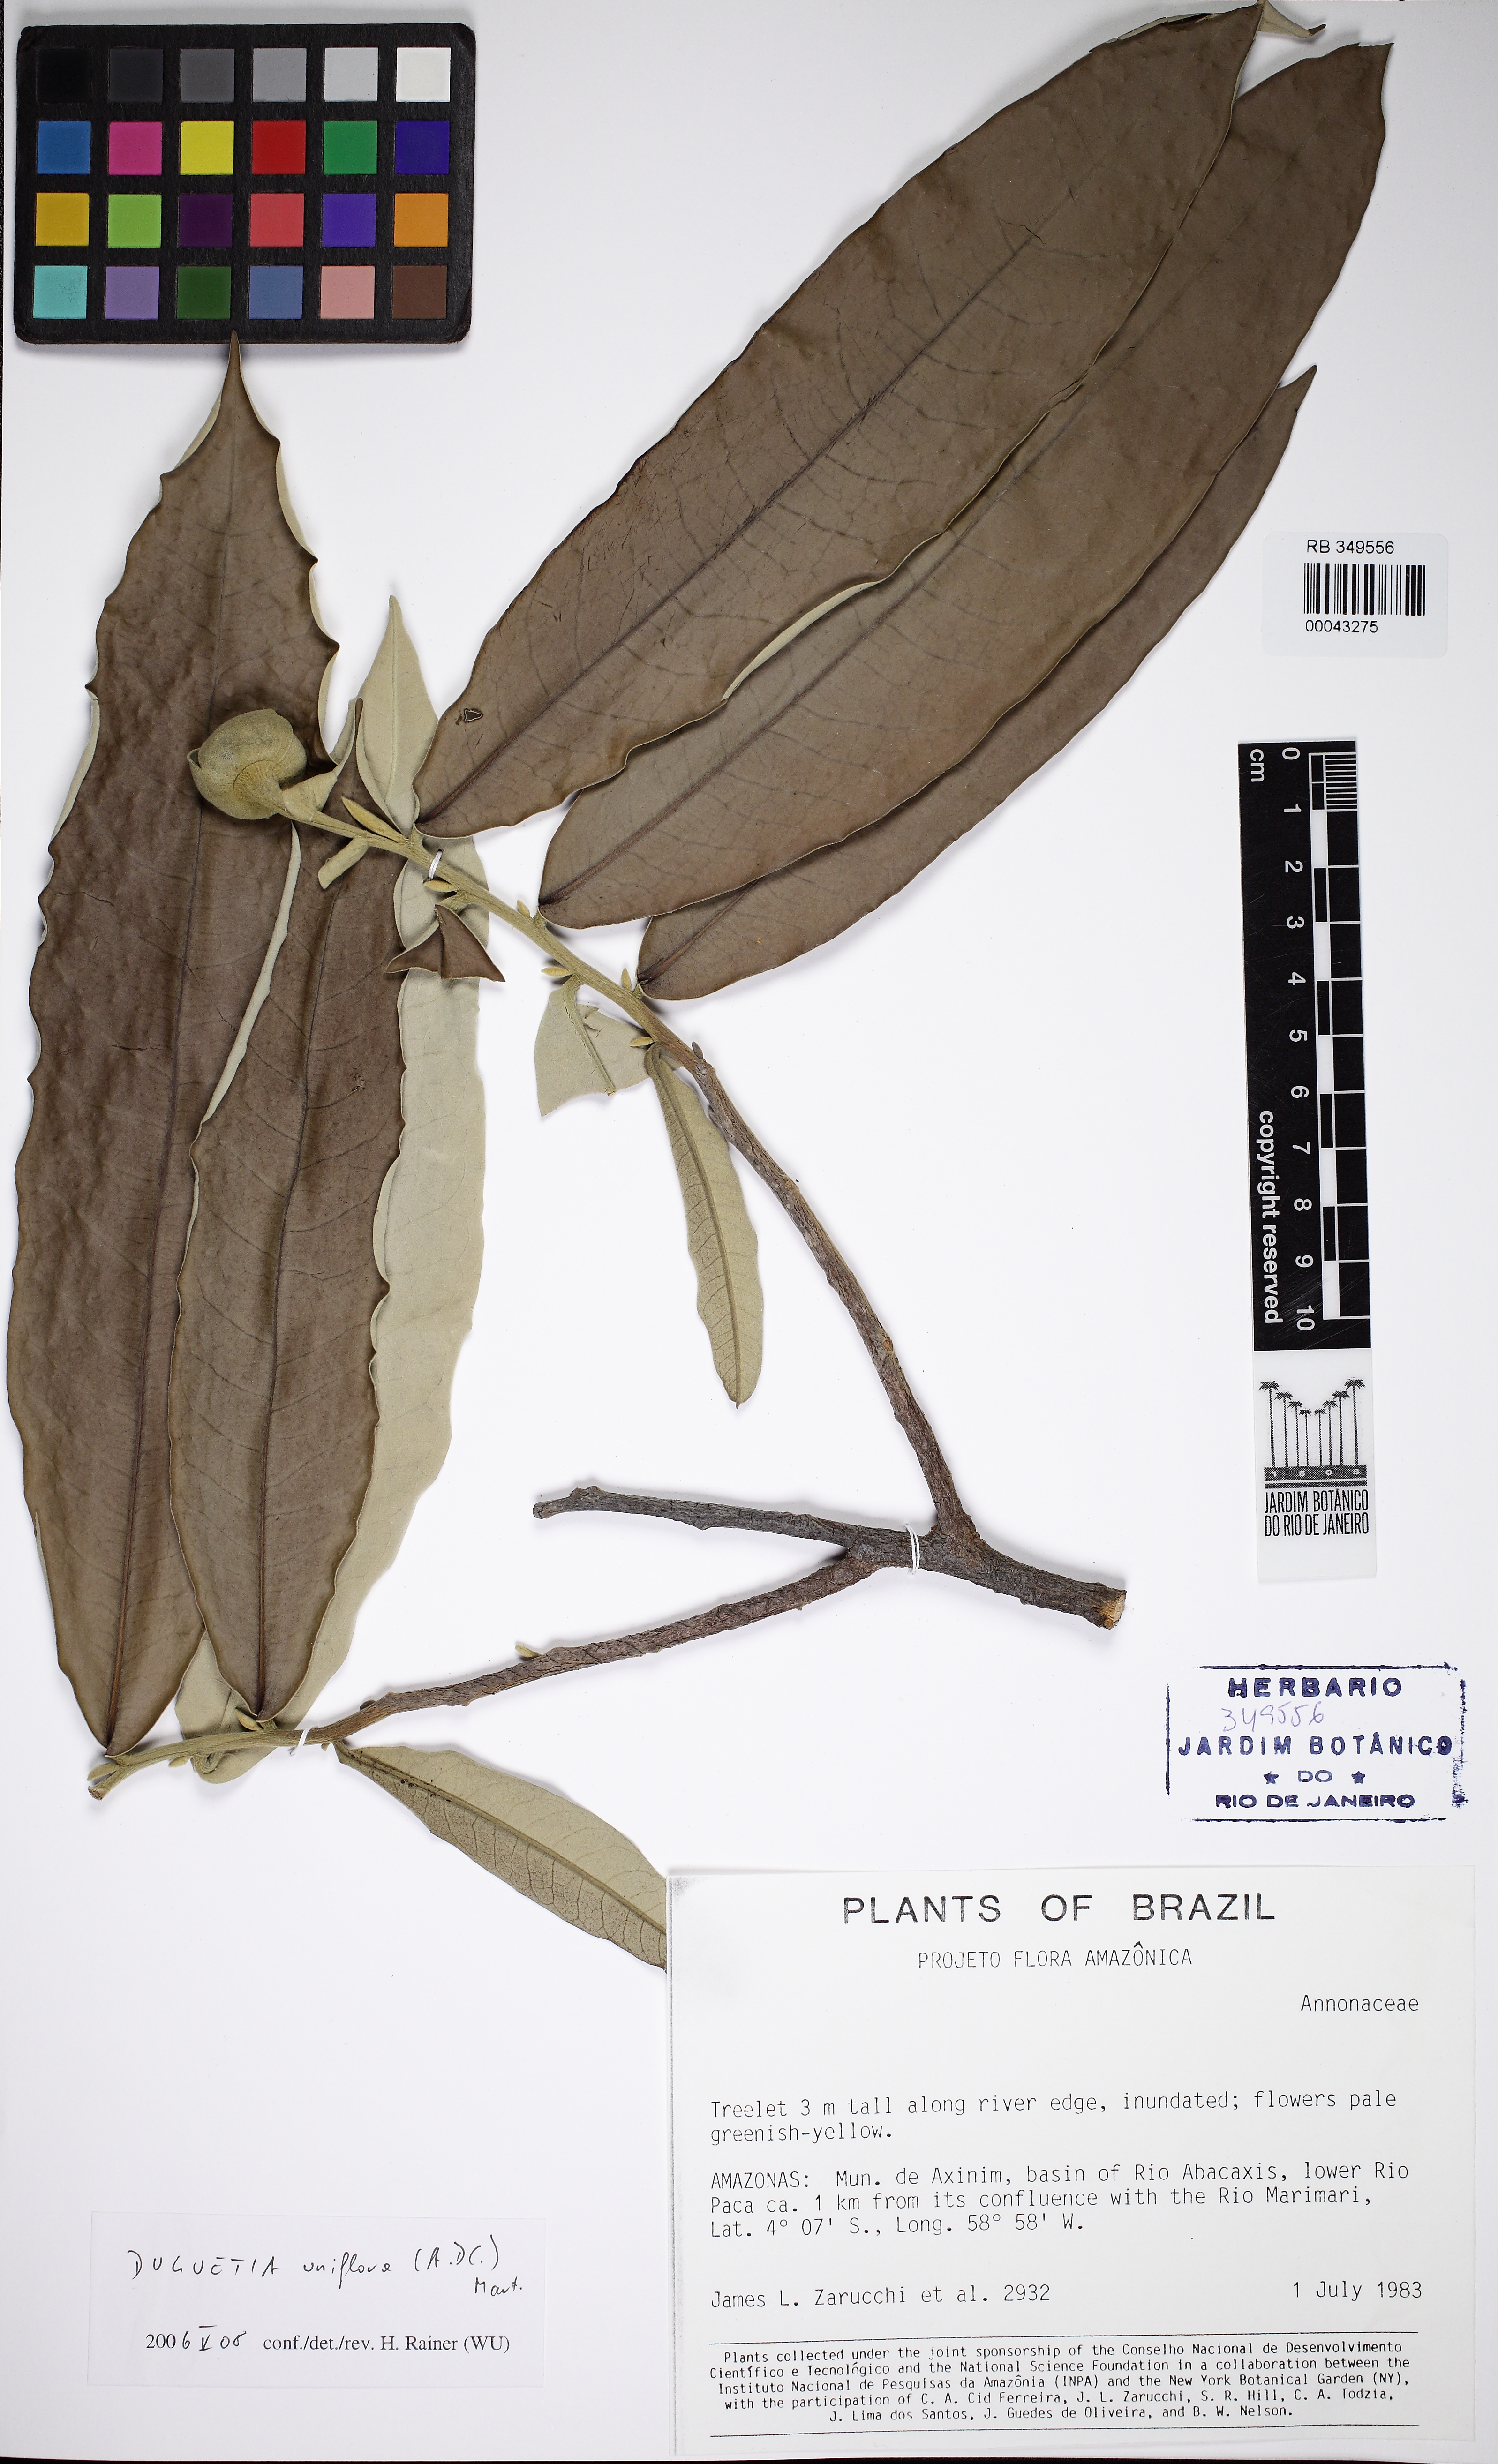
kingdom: Plantae
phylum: Tracheophyta
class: Magnoliopsida
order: Magnoliales
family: Annonaceae
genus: Duguetia
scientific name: Duguetia uniflora
